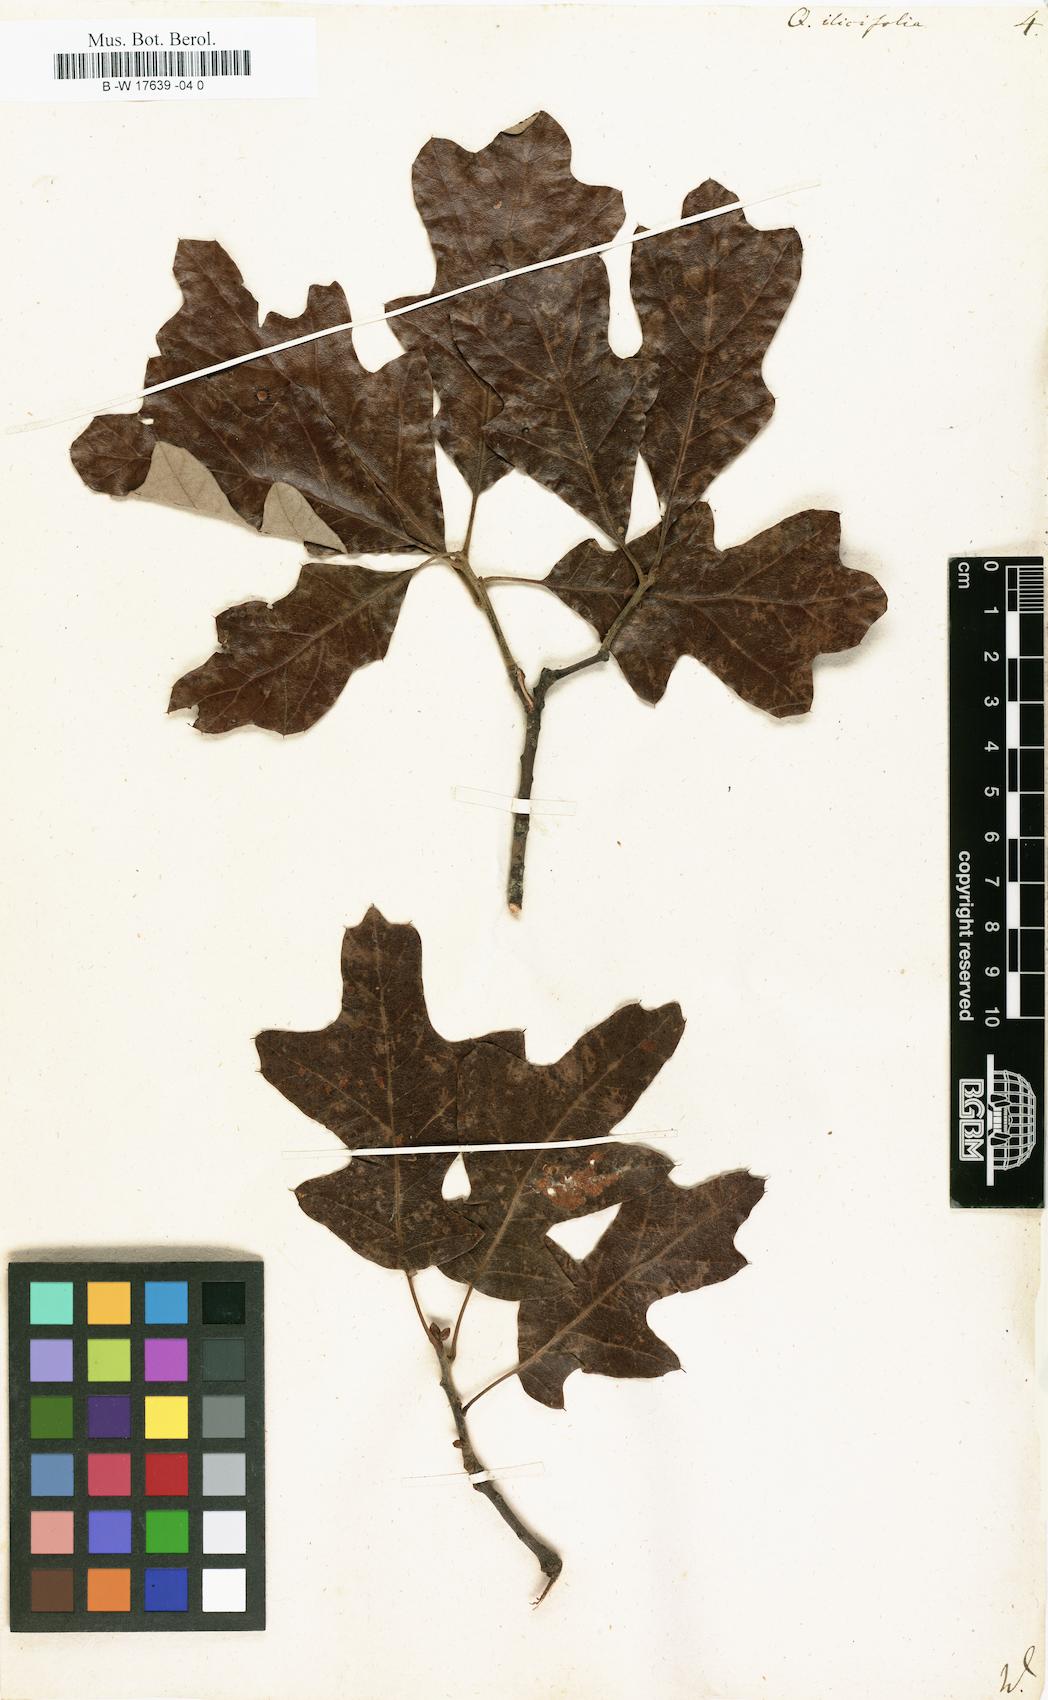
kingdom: Plantae
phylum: Tracheophyta
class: Magnoliopsida
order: Fagales
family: Fagaceae
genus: Quercus
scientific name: Quercus ilicifolia
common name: Bear oak
